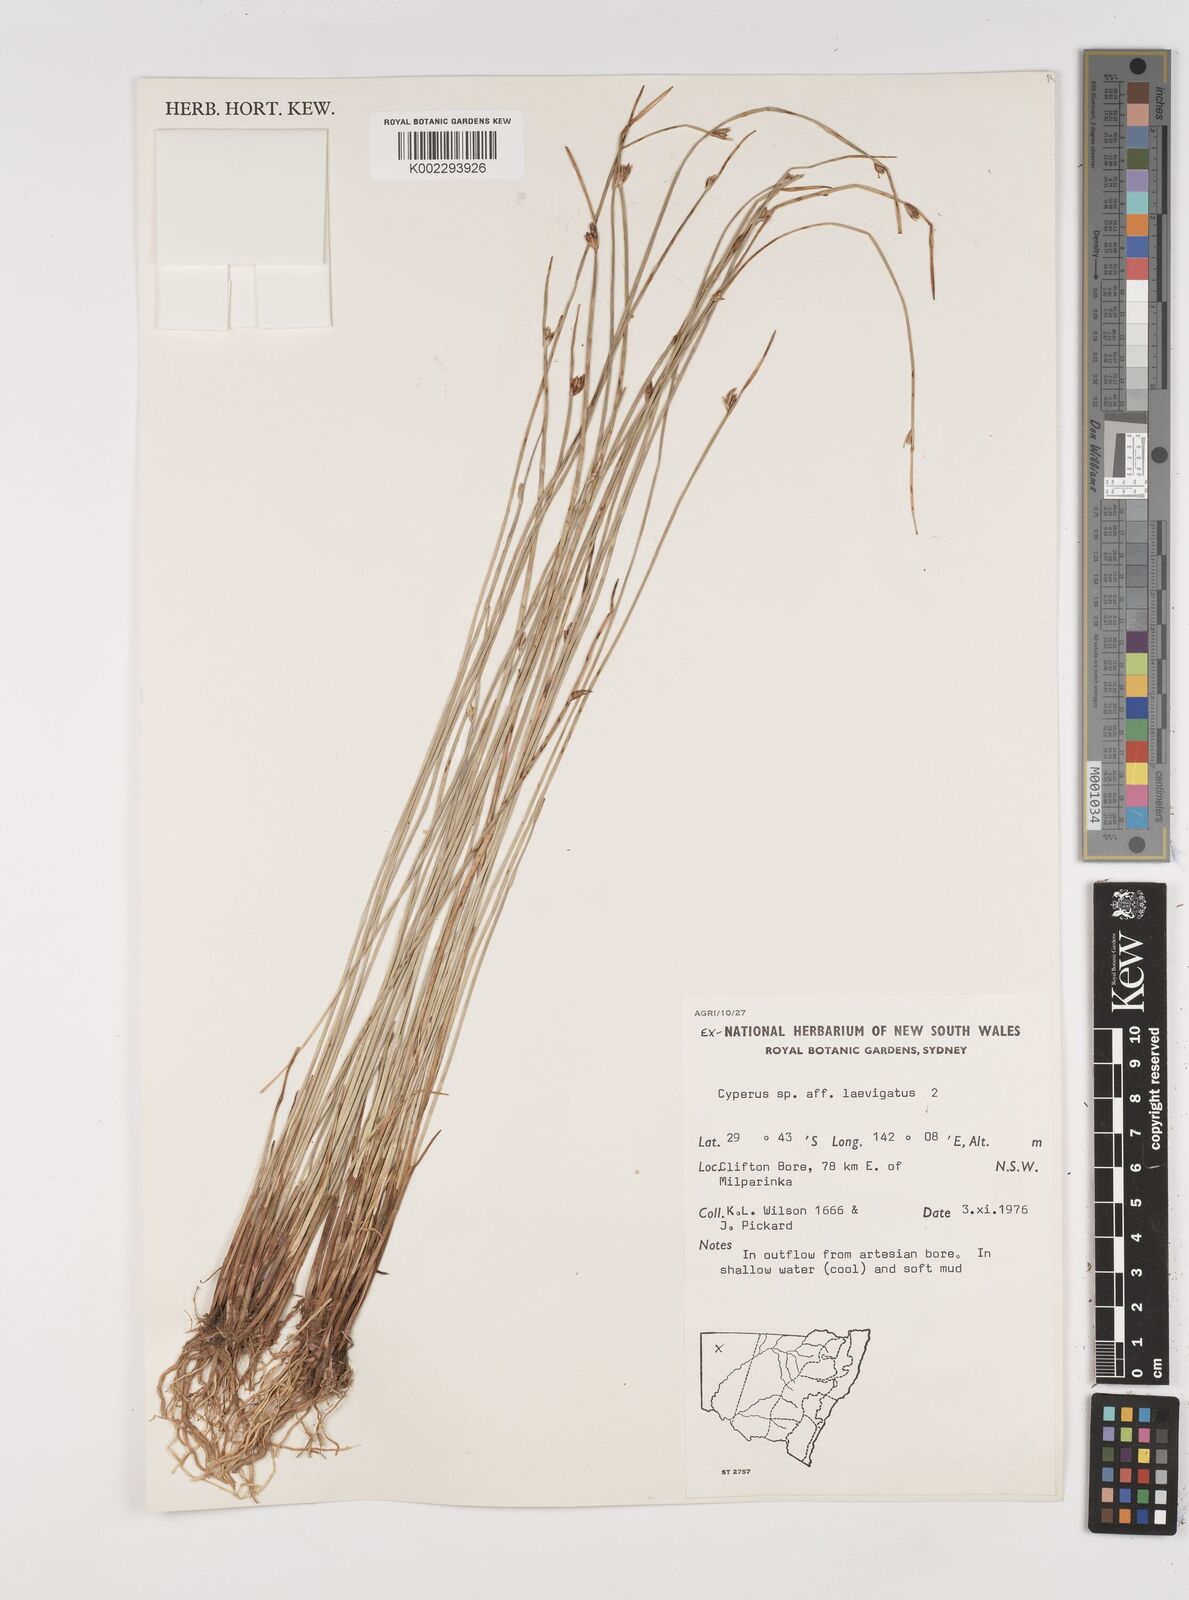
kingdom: Plantae
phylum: Tracheophyta
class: Liliopsida
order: Poales
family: Cyperaceae
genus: Cyperus
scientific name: Cyperus laevigatus
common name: Smooth flat sedge
